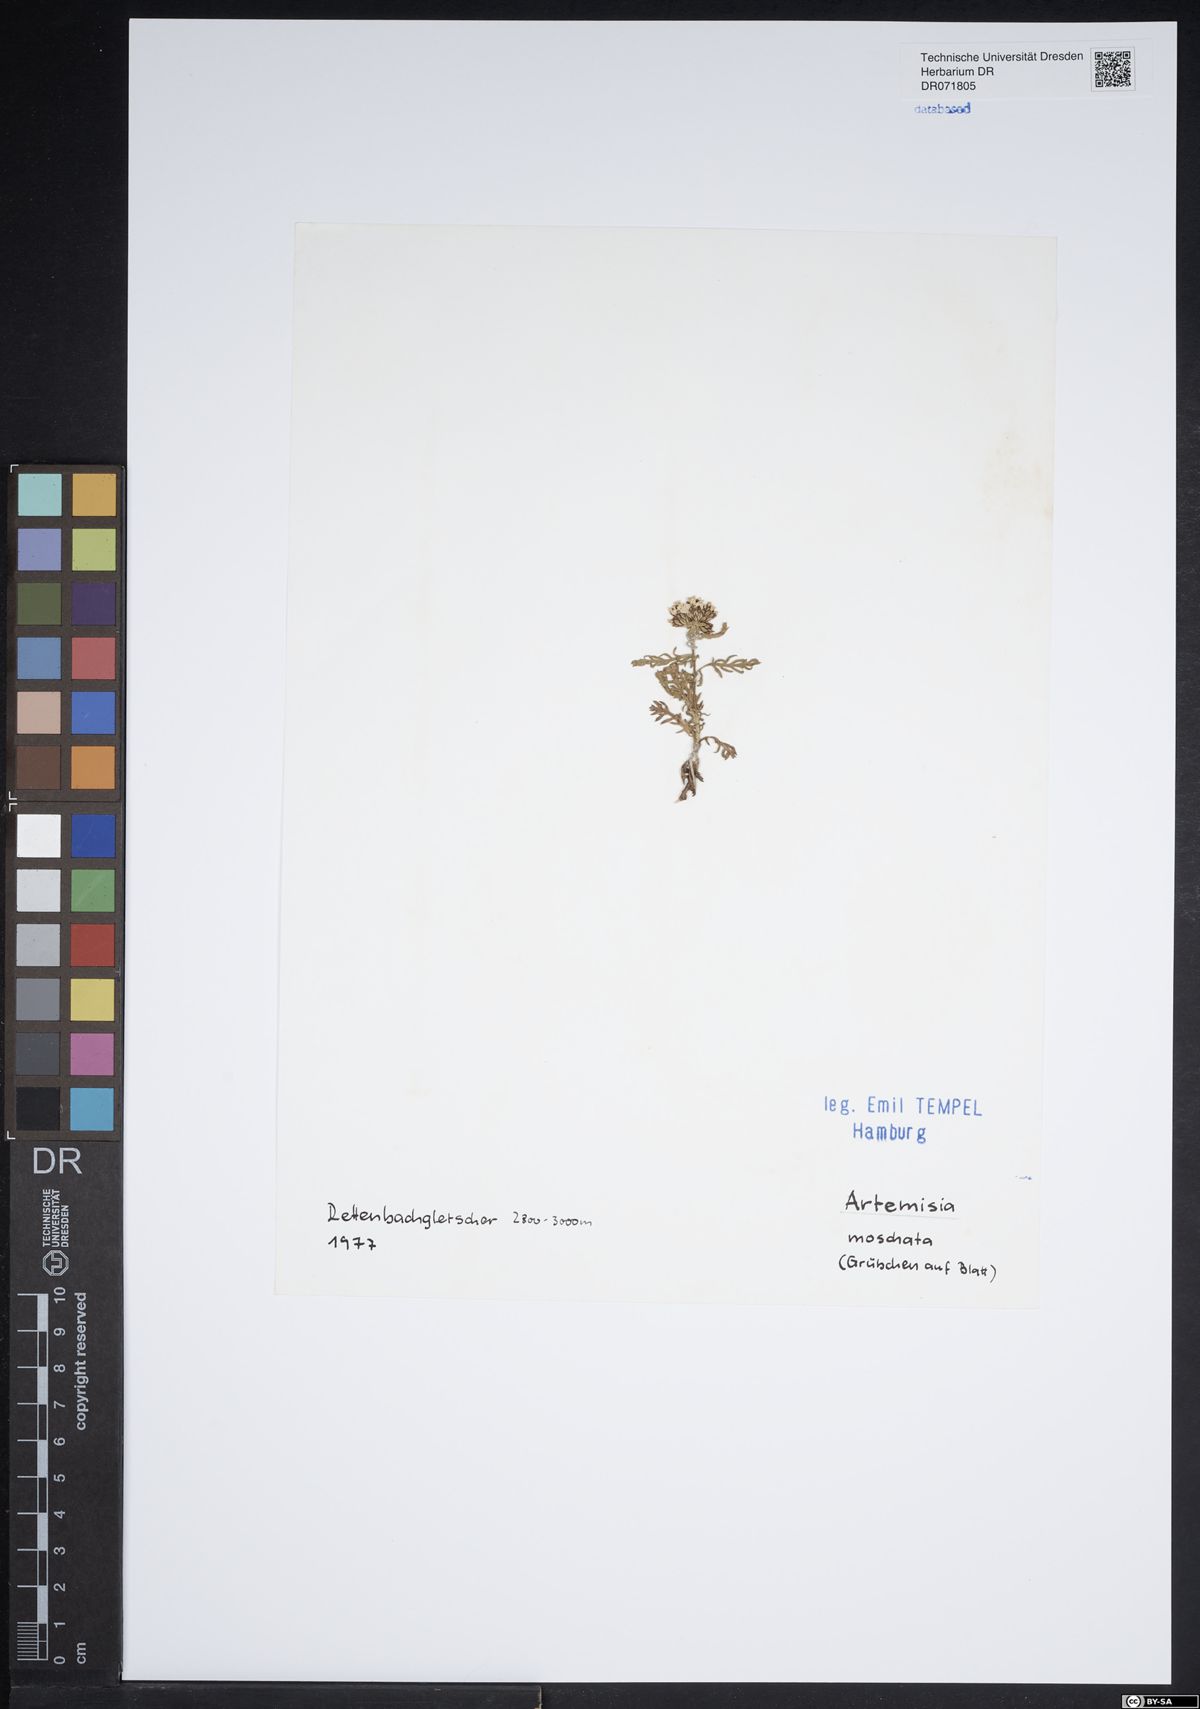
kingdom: Plantae
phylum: Tracheophyta
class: Magnoliopsida
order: Asterales
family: Asteraceae
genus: Artemisia
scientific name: Artemisia
